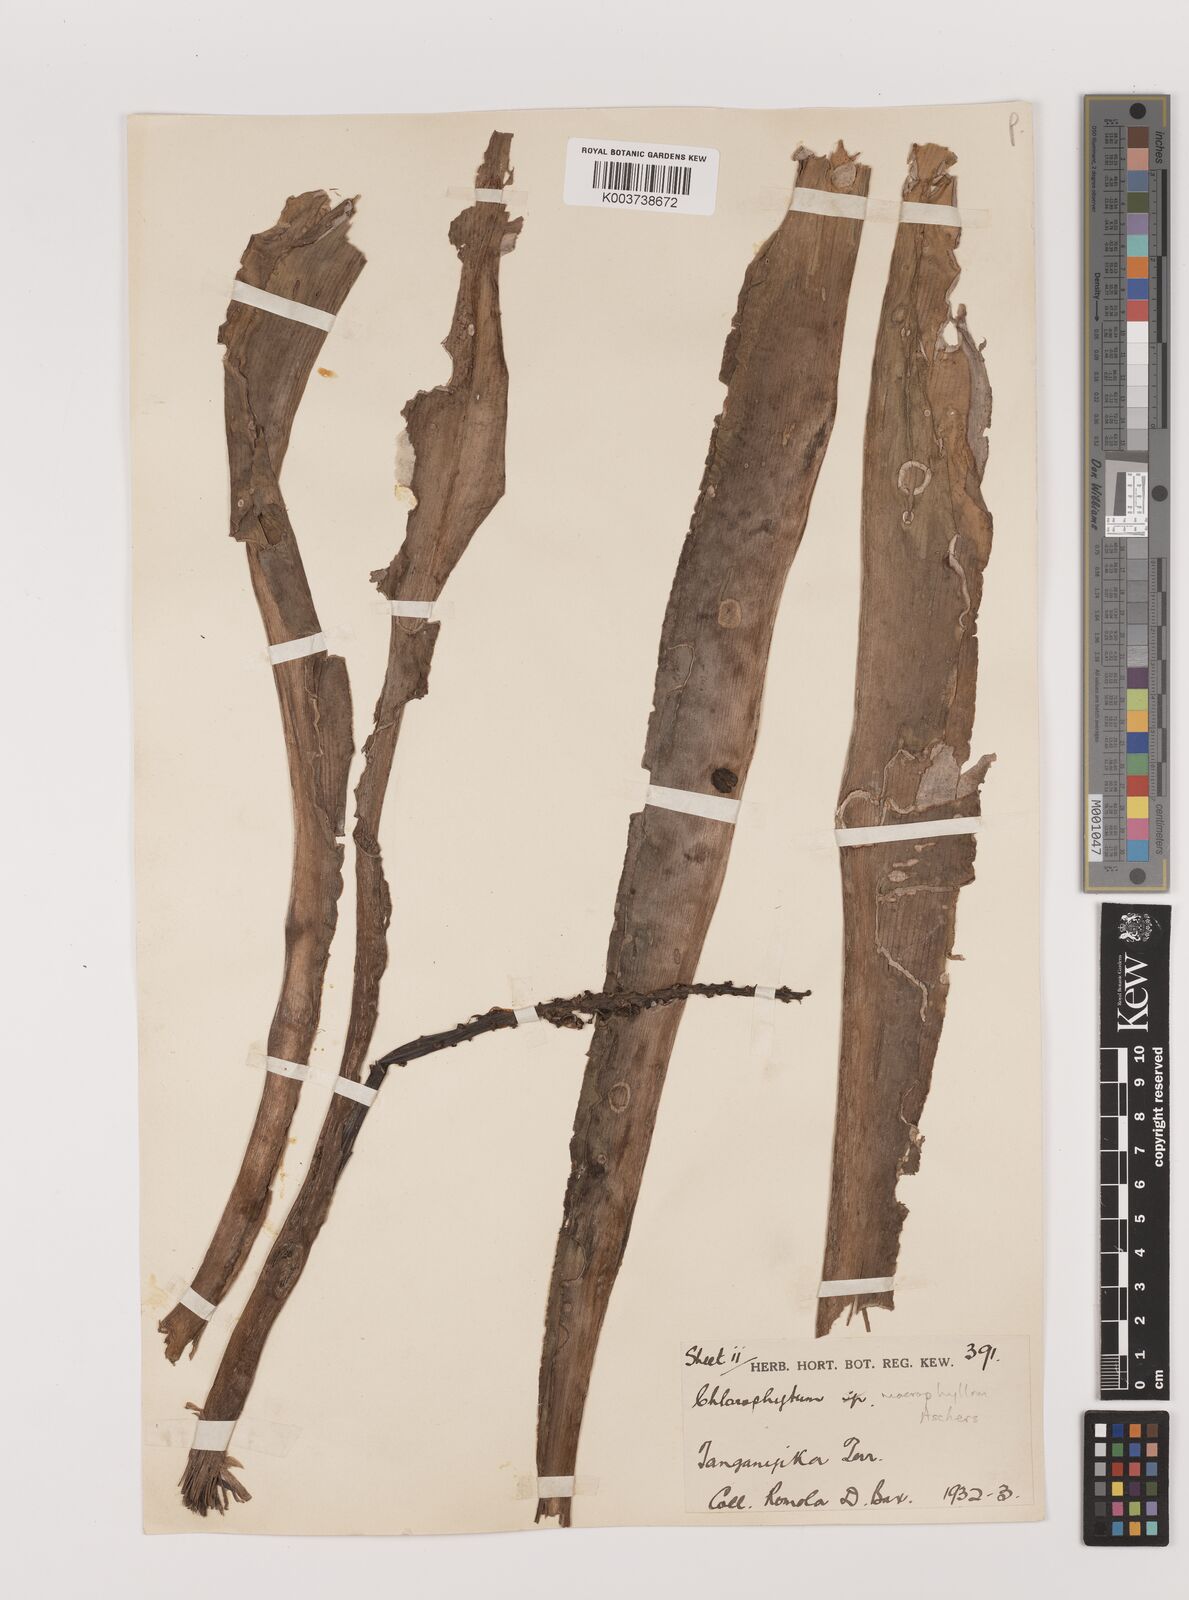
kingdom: Plantae
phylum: Tracheophyta
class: Liliopsida
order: Asparagales
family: Asparagaceae
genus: Chlorophytum
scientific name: Chlorophytum macrophyllum
